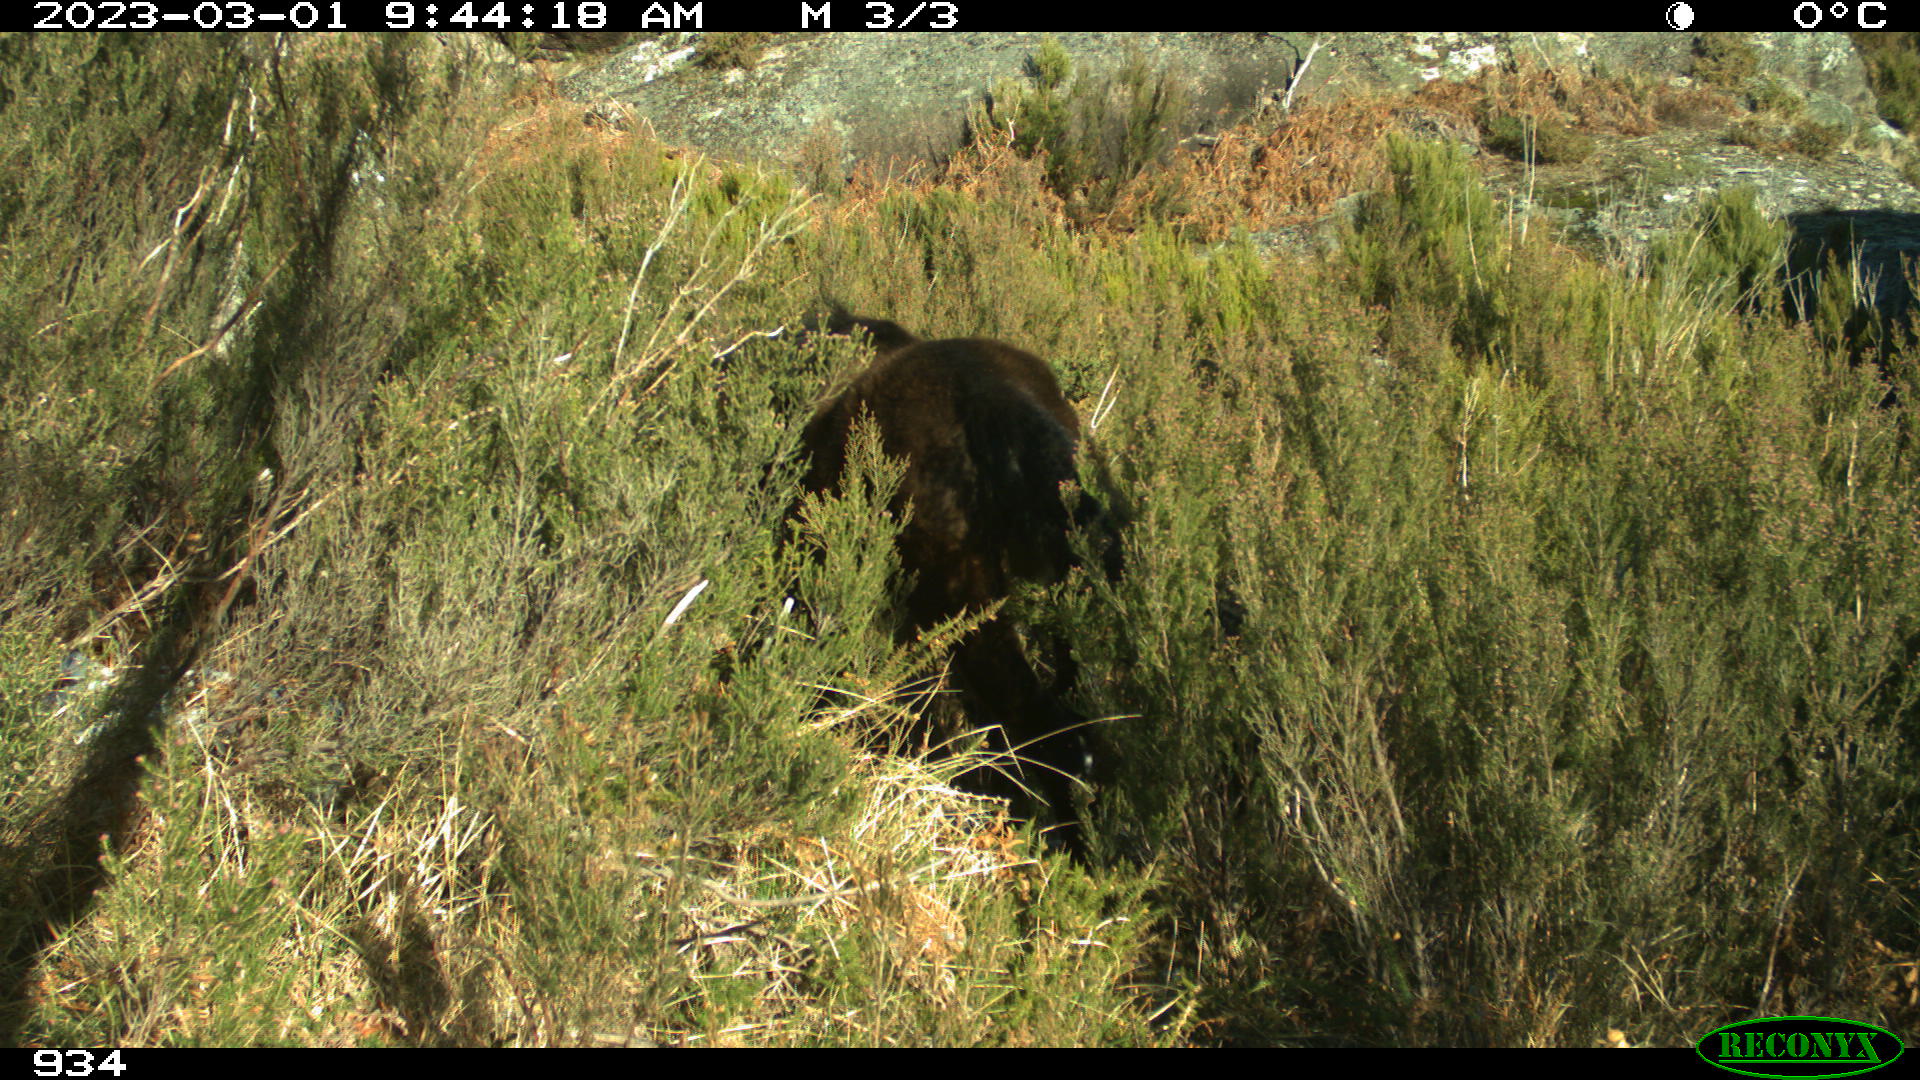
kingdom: Animalia
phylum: Chordata
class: Mammalia
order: Perissodactyla
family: Equidae
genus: Equus
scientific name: Equus caballus
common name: Horse
